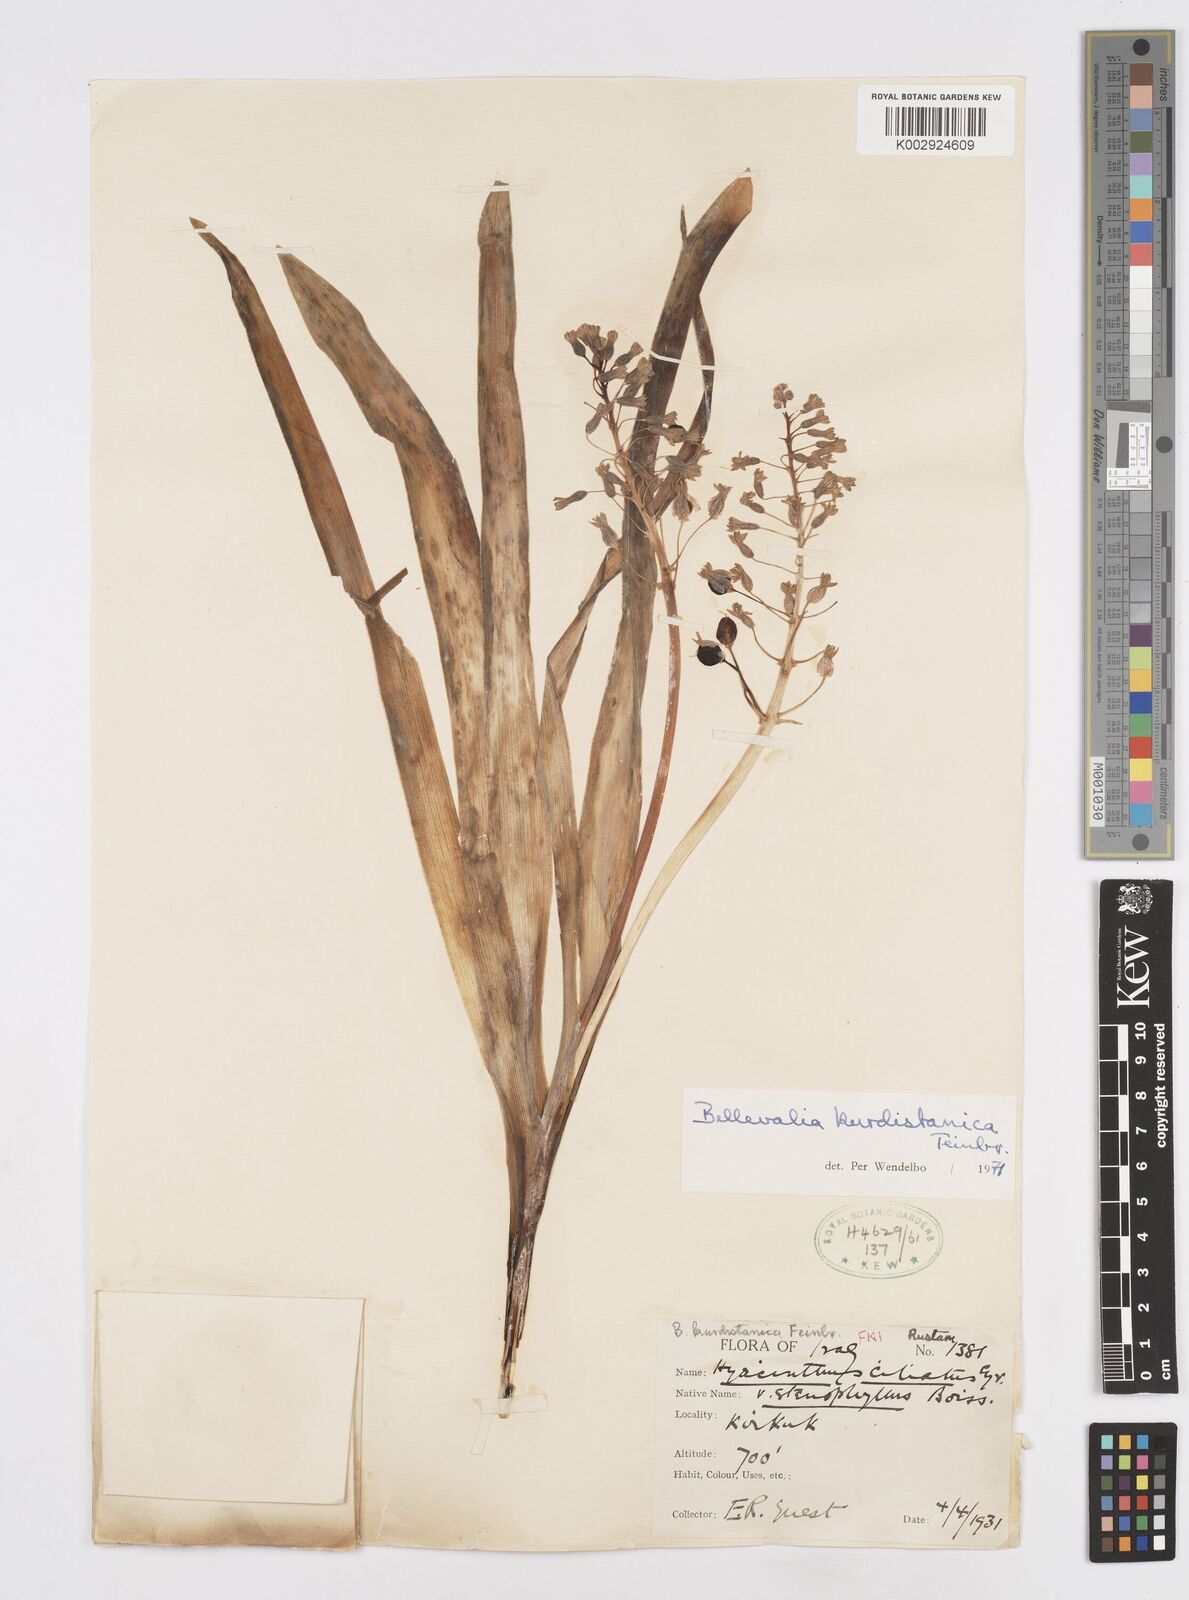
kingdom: Plantae
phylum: Tracheophyta
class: Liliopsida
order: Asparagales
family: Asparagaceae
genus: Bellevalia
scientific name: Bellevalia kurdistanica
